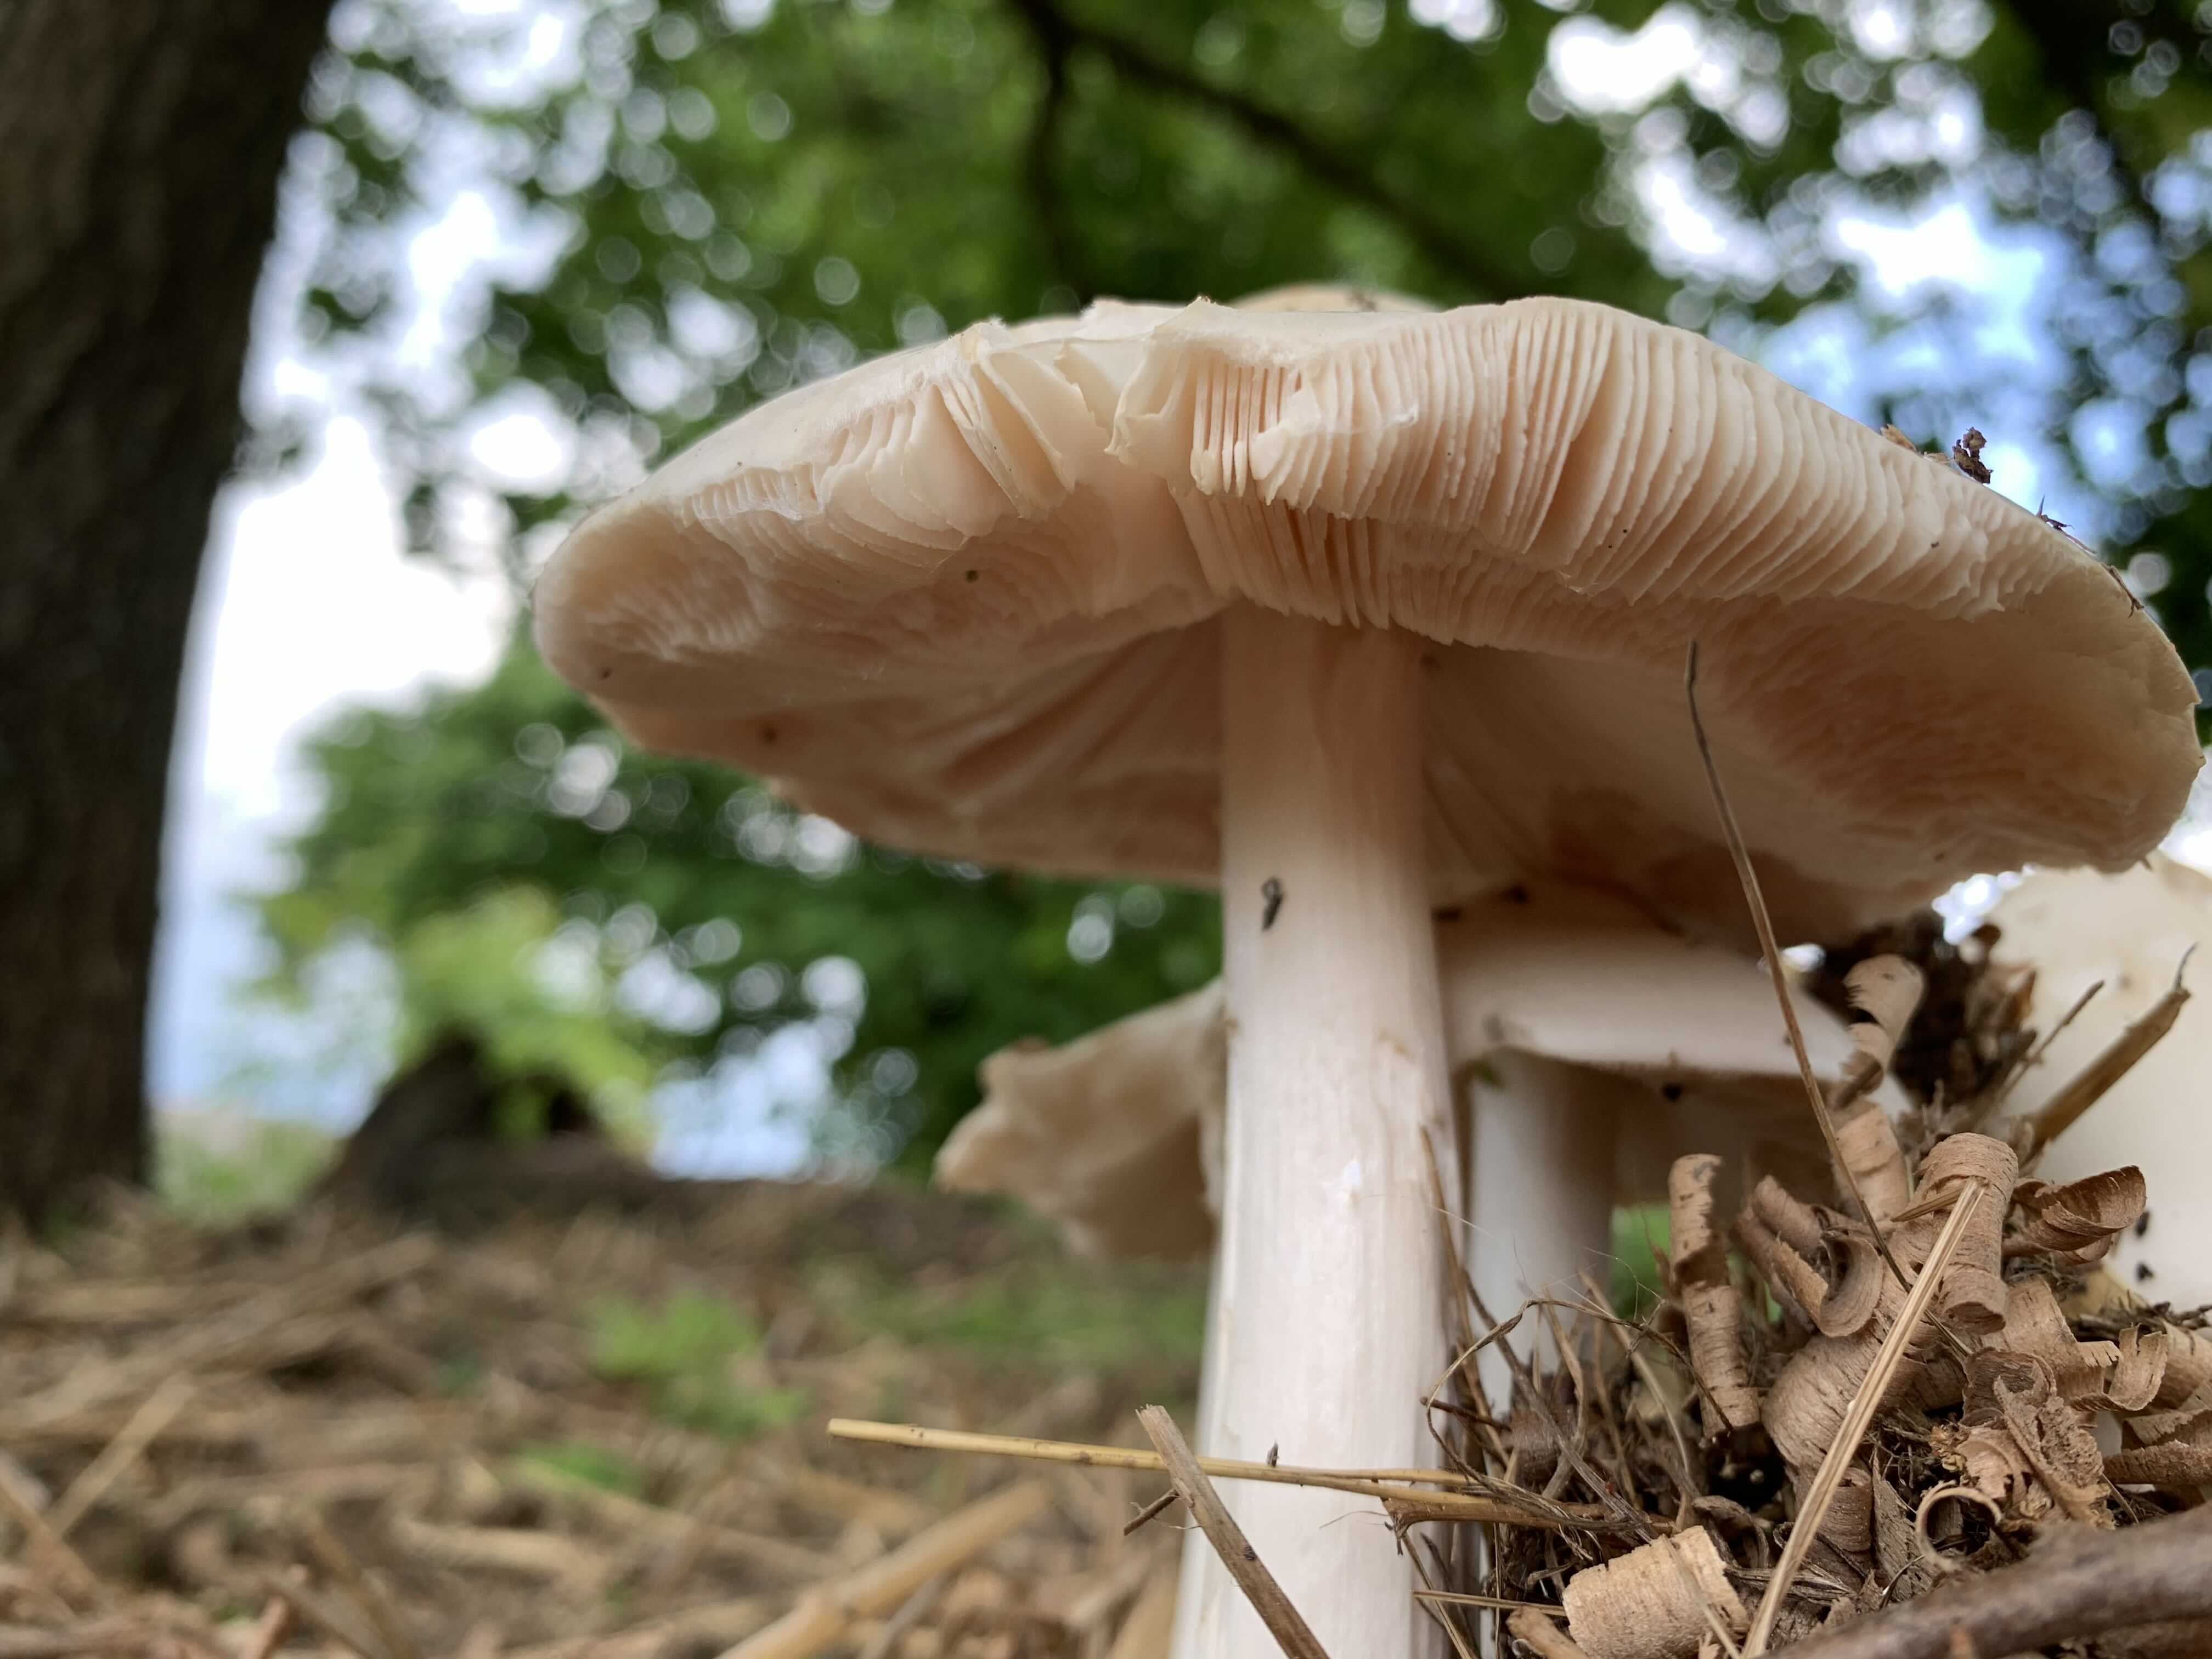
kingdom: Fungi
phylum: Basidiomycota
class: Agaricomycetes
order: Agaricales
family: Pluteaceae
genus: Volvopluteus
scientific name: Volvopluteus gloiocephalus
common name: høj posesvamp
